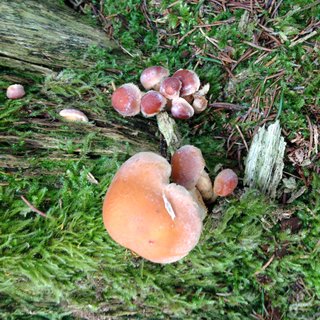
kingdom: Fungi
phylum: Basidiomycota
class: Agaricomycetes
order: Agaricales
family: Strophariaceae
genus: Hypholoma
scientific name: Hypholoma lateritium
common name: teglrød svovlhat
